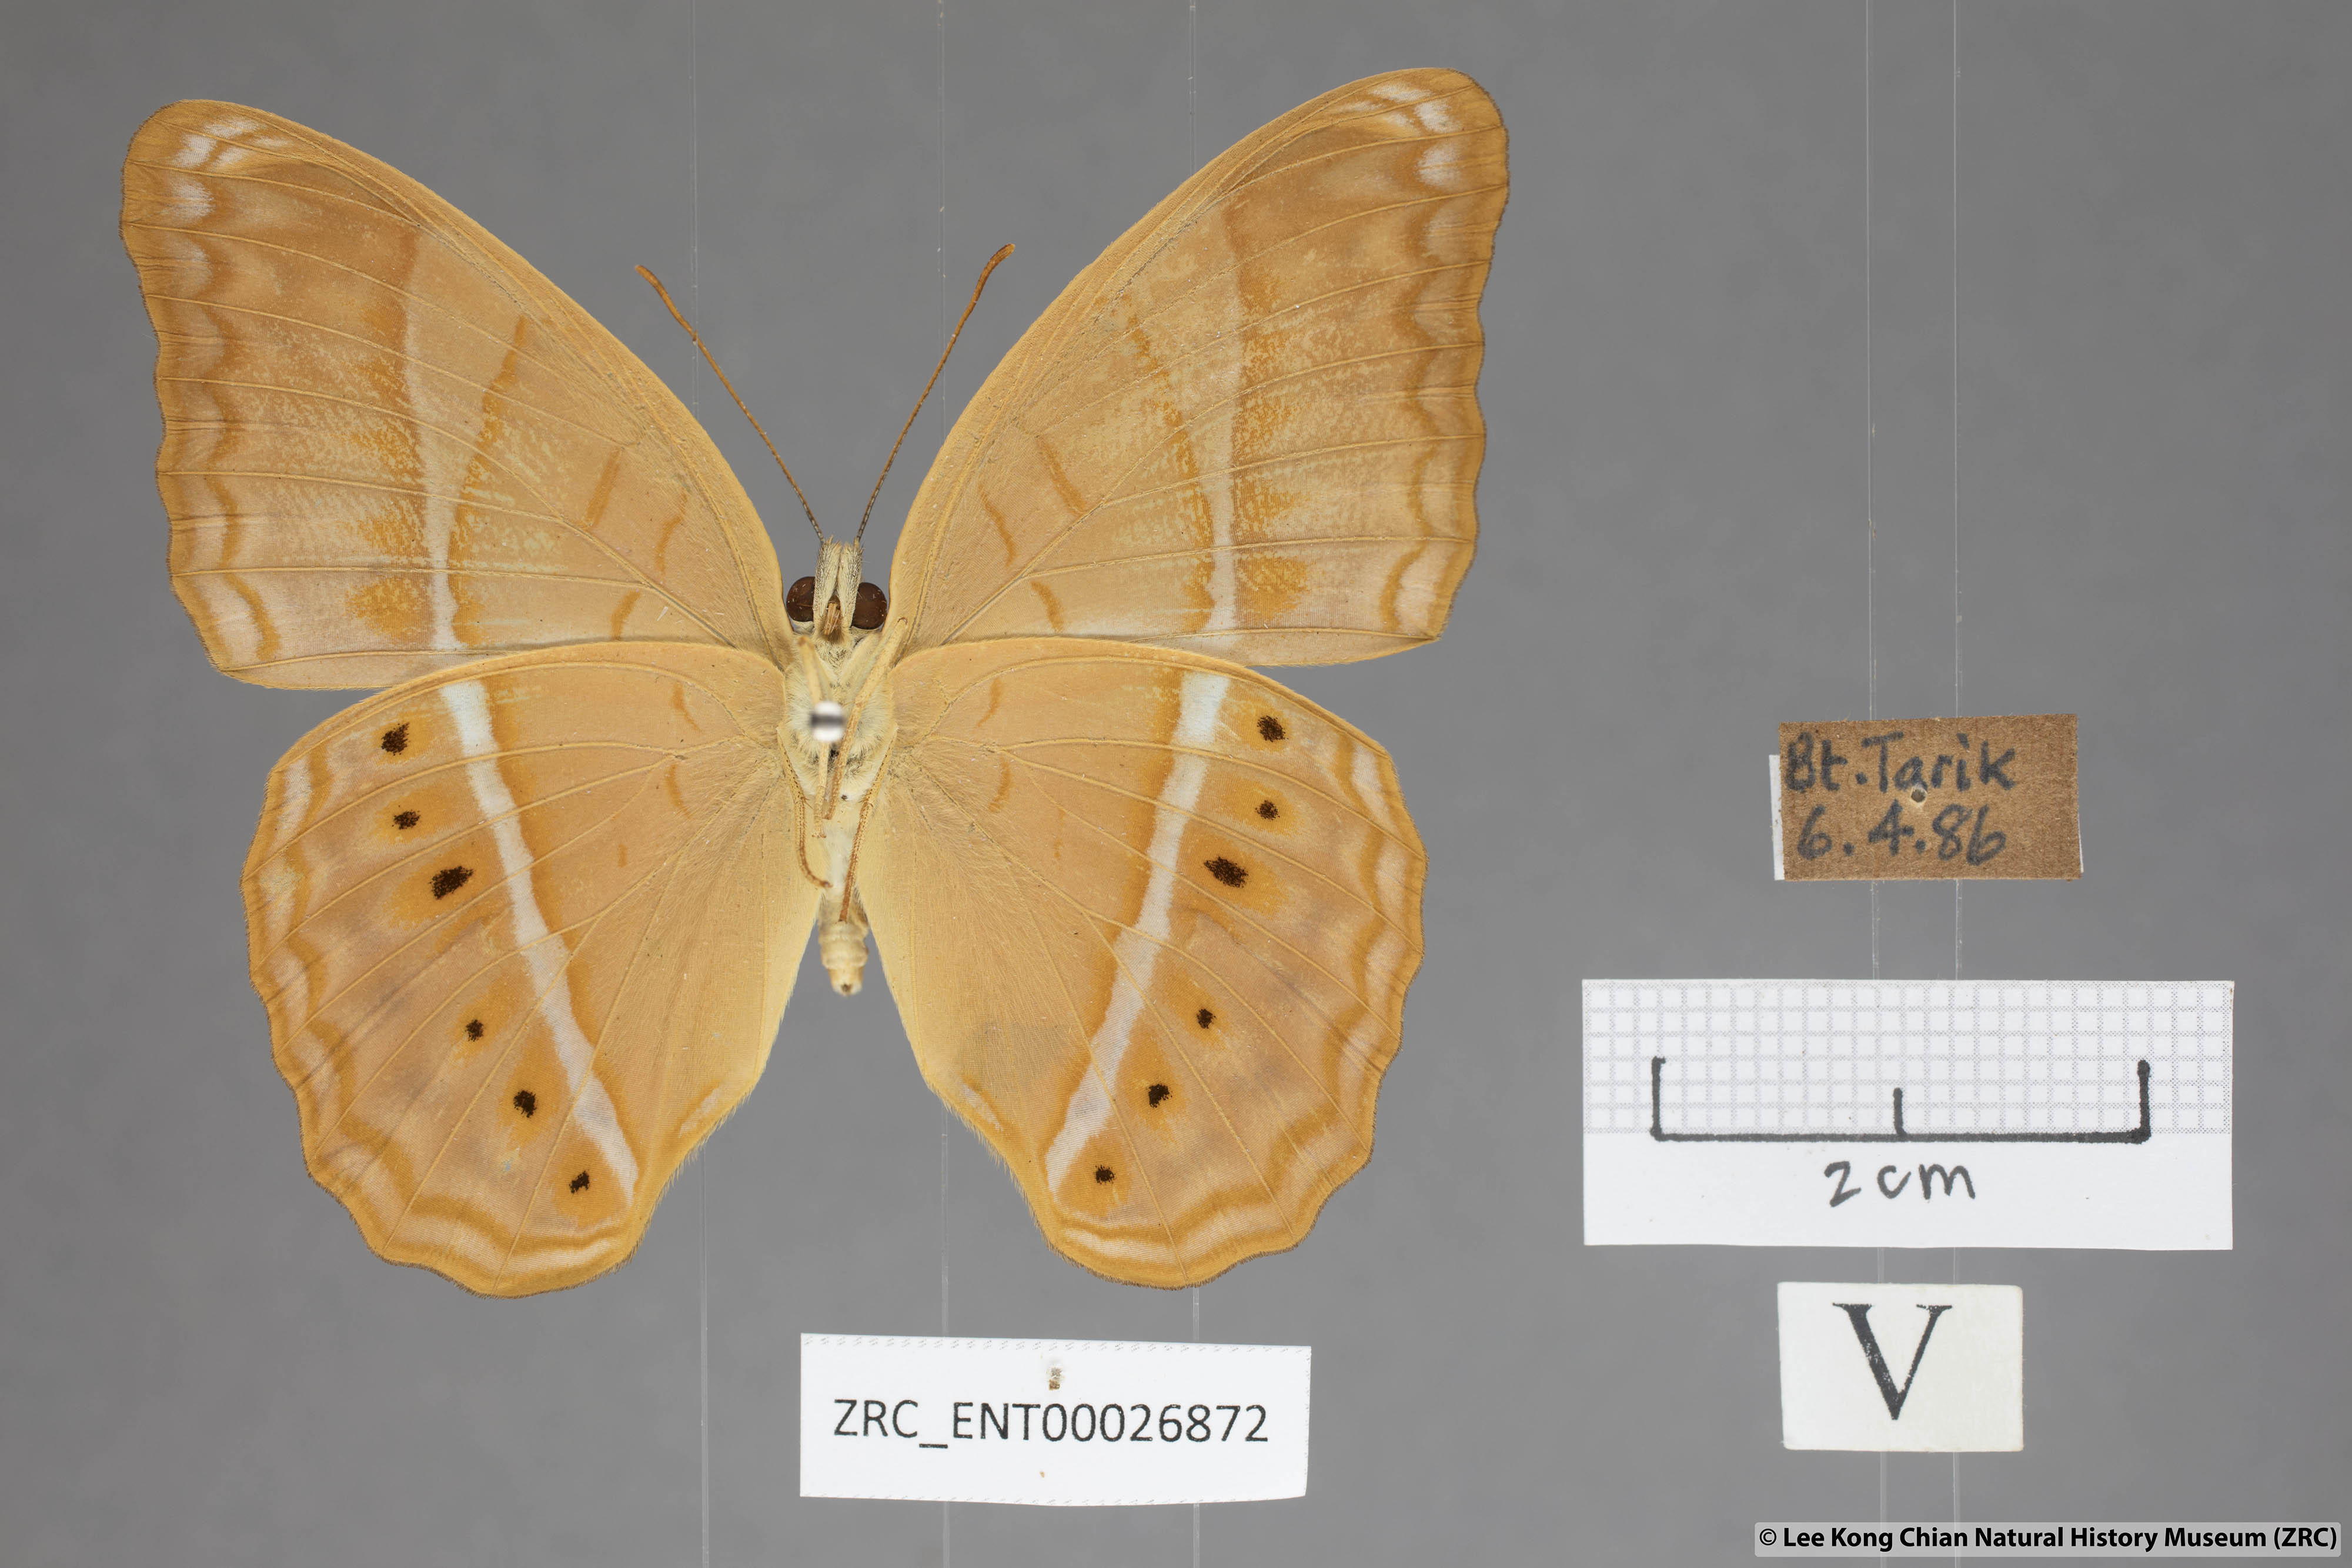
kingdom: Animalia
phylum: Arthropoda
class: Insecta
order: Lepidoptera
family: Nymphalidae
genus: Cirrochroa
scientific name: Cirrochroa malaya
